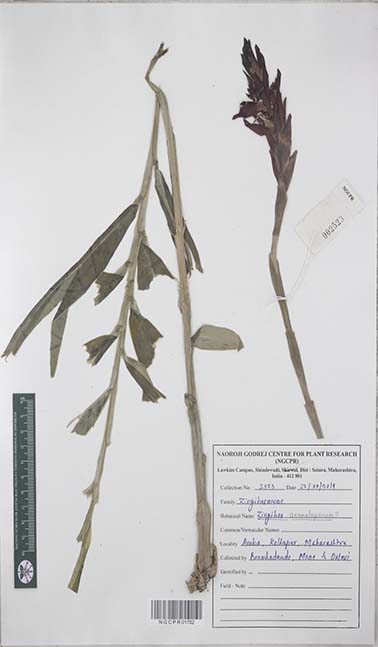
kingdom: Plantae
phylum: Tracheophyta
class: Liliopsida
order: Zingiberales
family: Zingiberaceae
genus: Zingiber
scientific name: Zingiber anamalayanum
